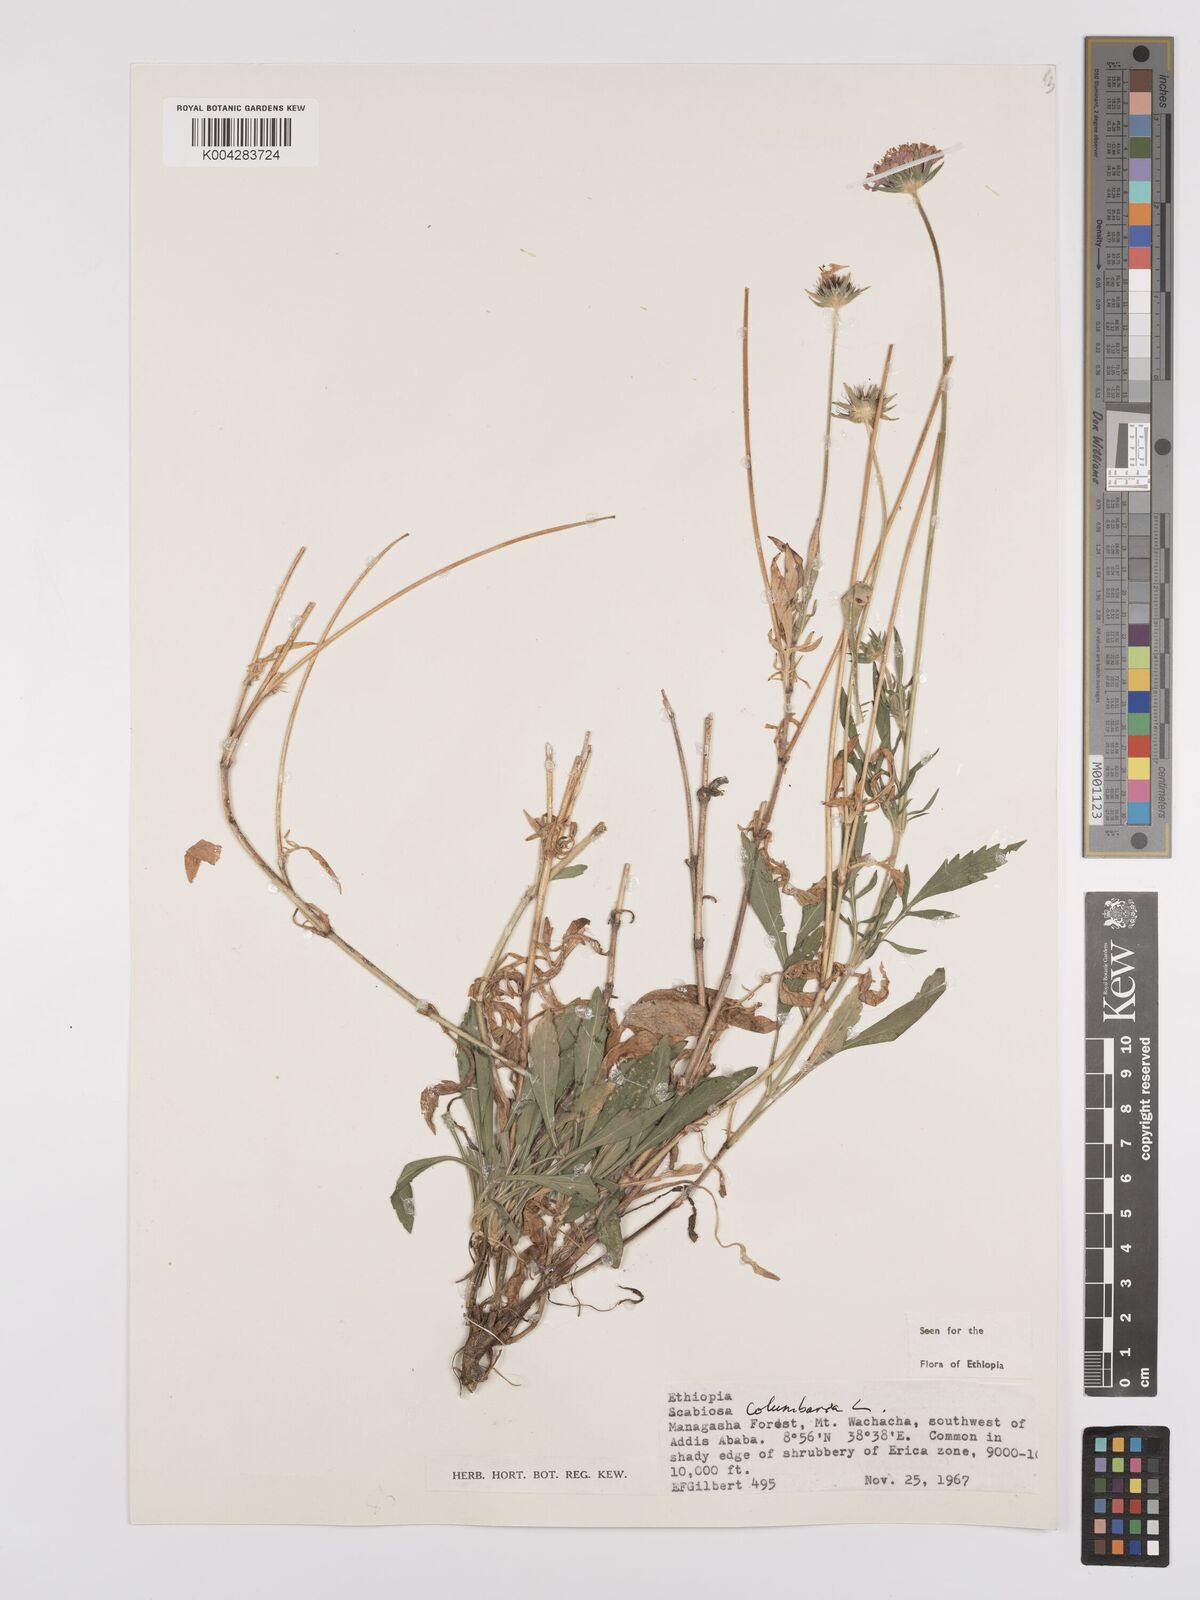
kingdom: Plantae
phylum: Tracheophyta
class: Magnoliopsida
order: Dipsacales
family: Caprifoliaceae
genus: Scabiosa
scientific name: Scabiosa columbaria
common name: Small scabious
